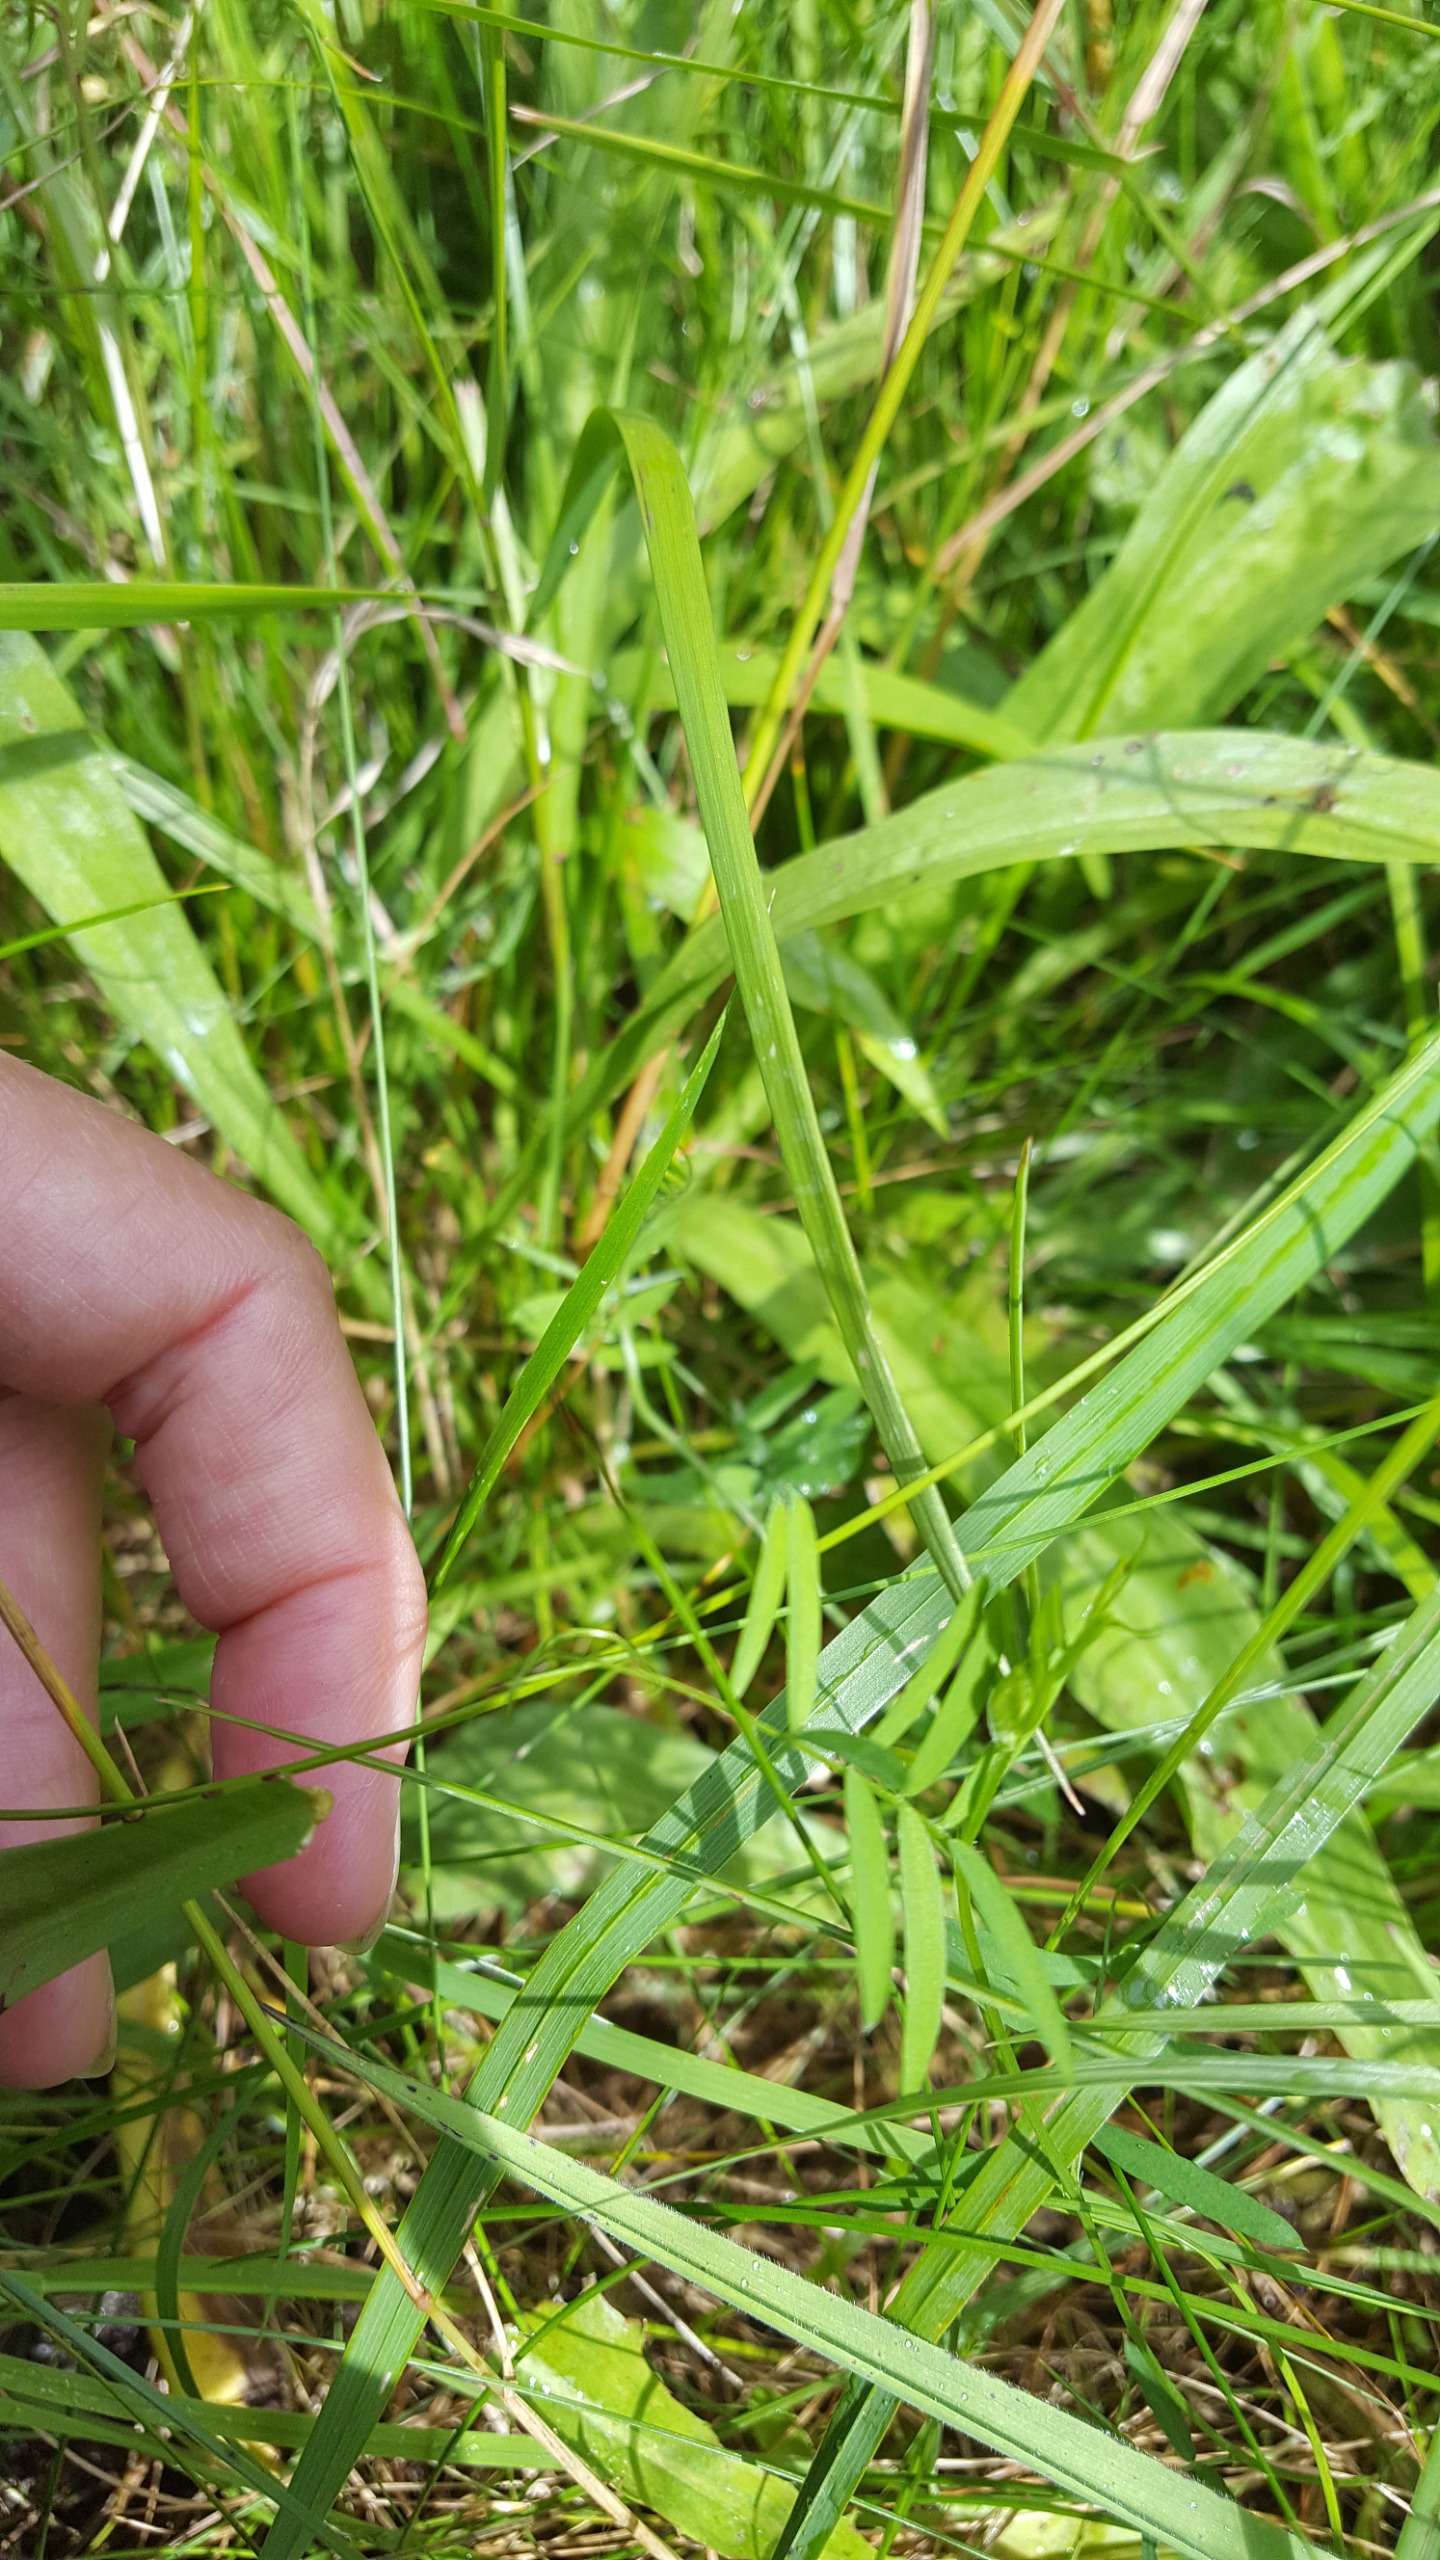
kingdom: Plantae
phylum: Tracheophyta
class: Magnoliopsida
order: Asterales
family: Asteraceae
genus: Scorzonera
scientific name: Scorzonera humilis
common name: Lav skorsoner
